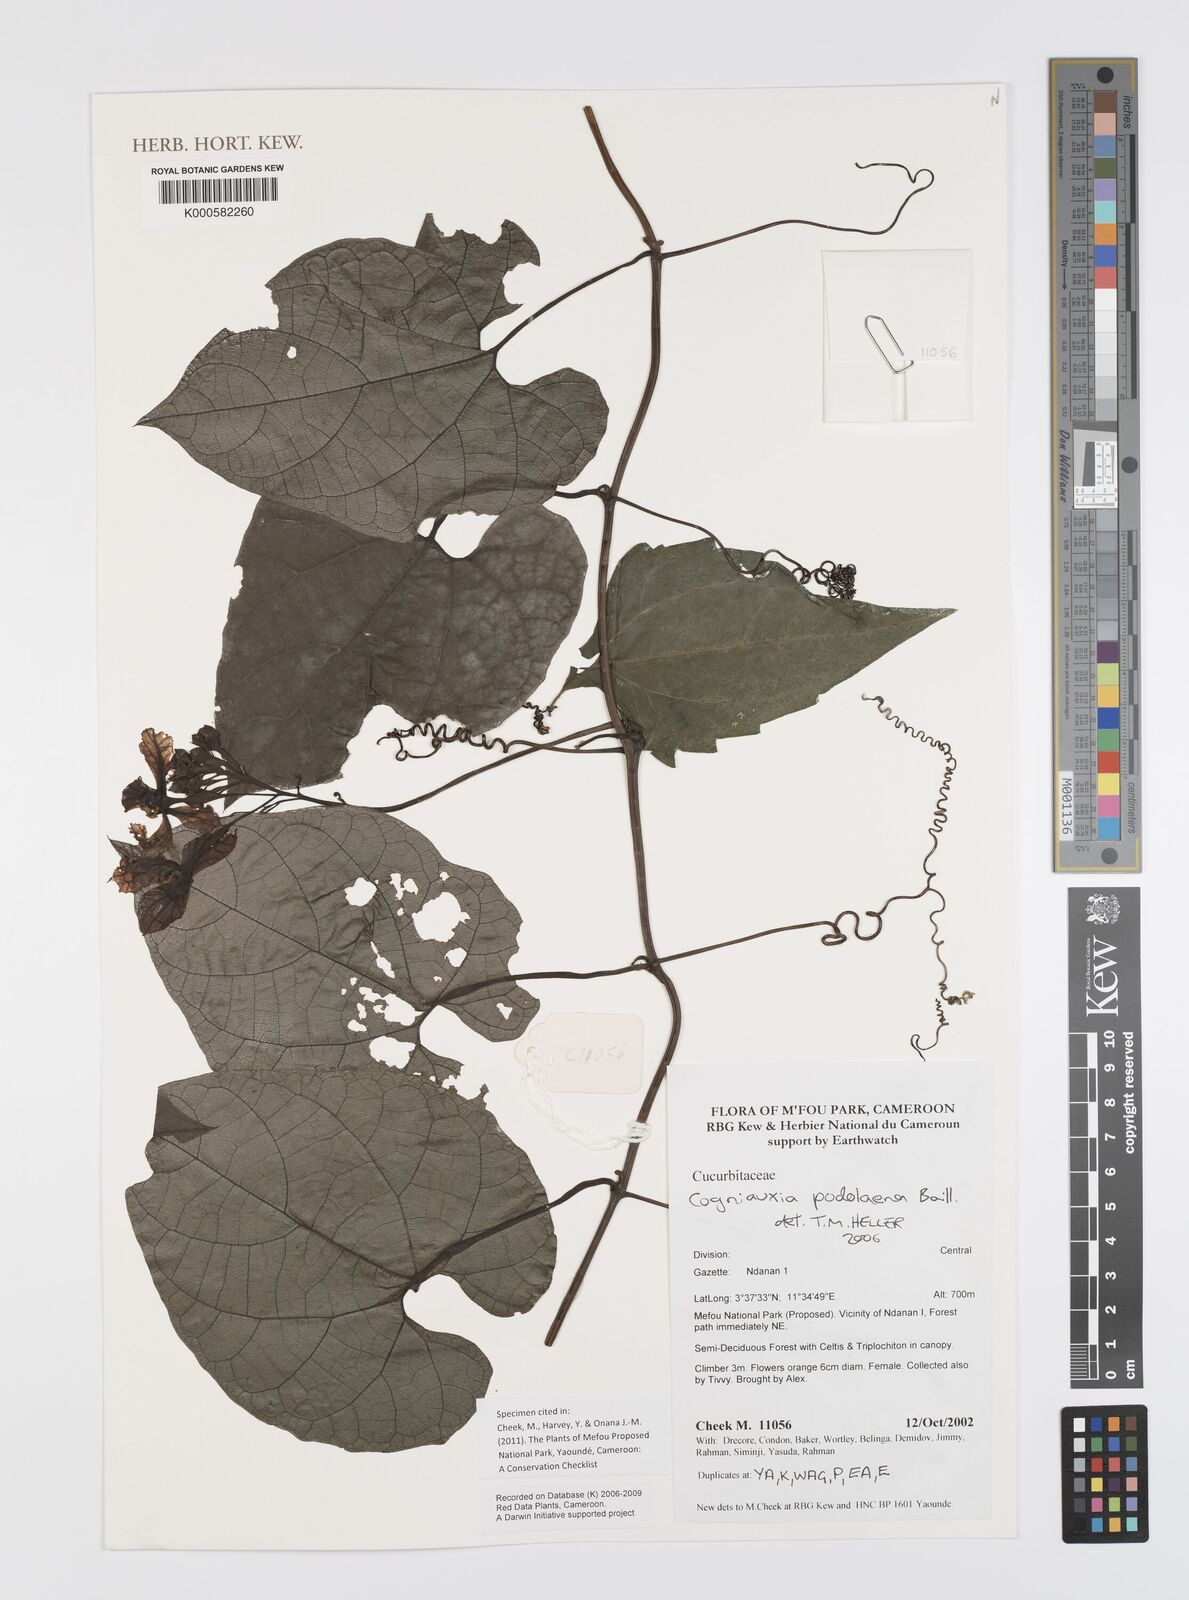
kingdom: Plantae
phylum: Tracheophyta
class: Magnoliopsida
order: Cucurbitales
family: Cucurbitaceae
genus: Cogniauxia
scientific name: Cogniauxia podolaena
